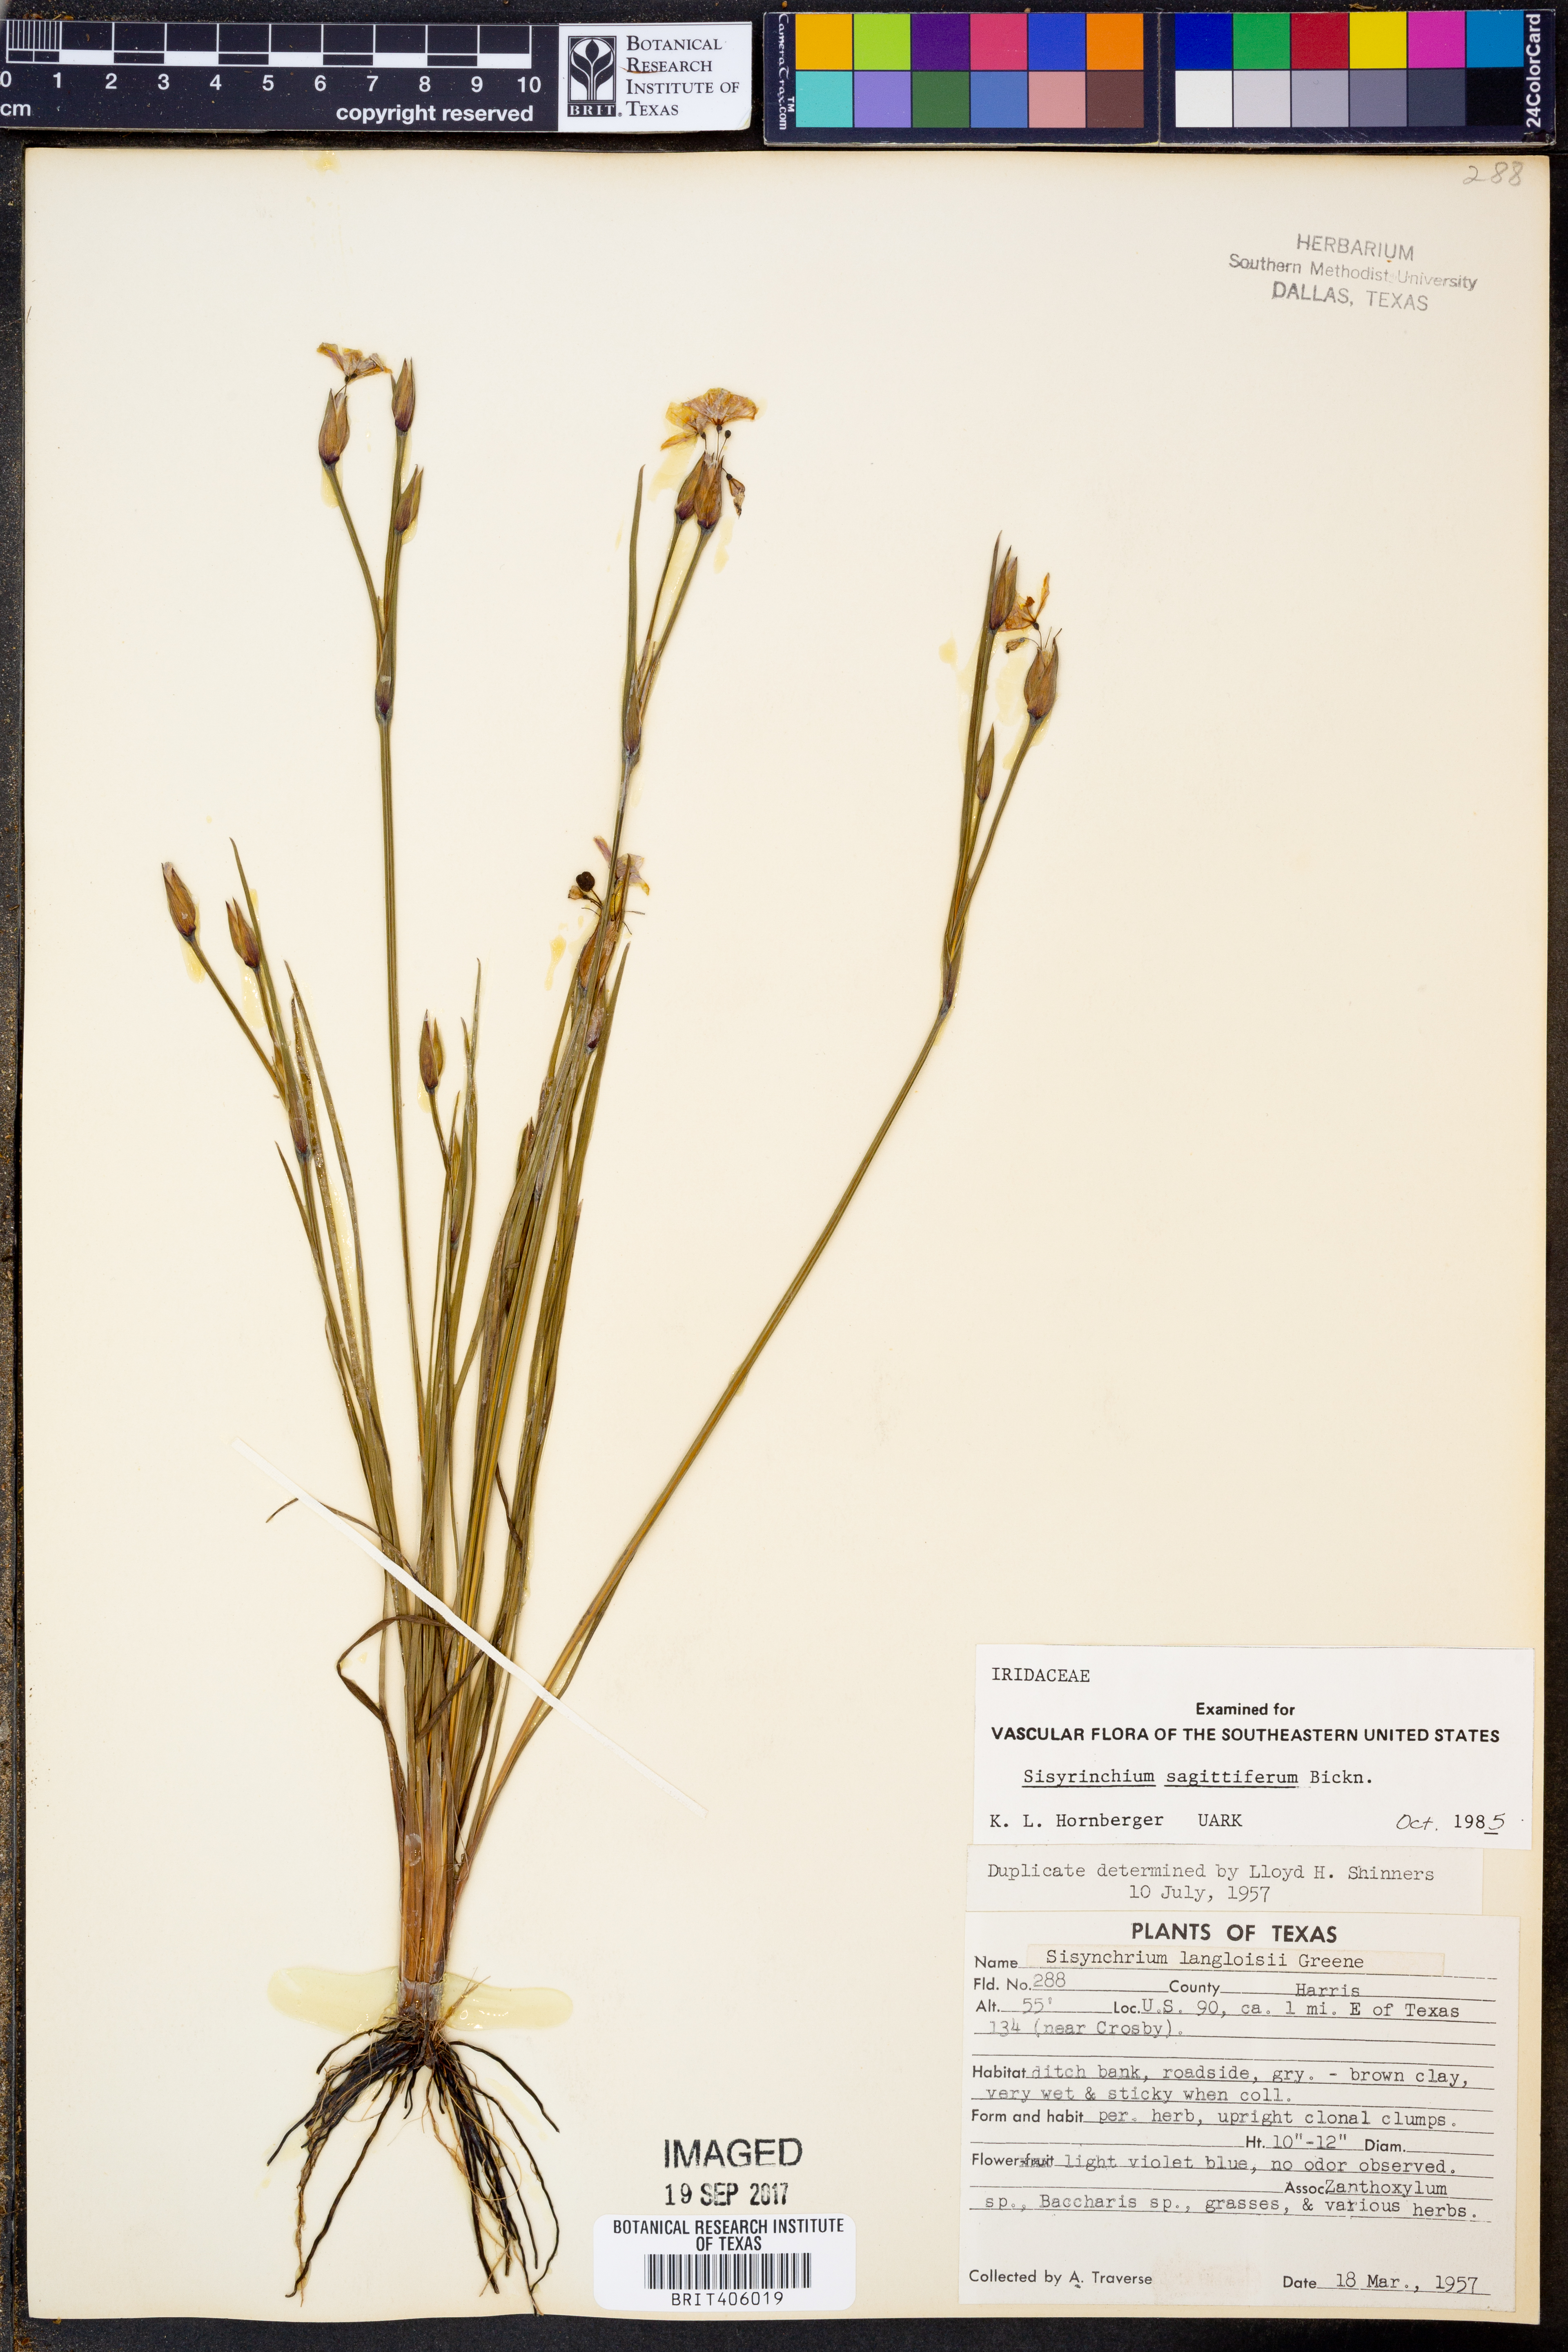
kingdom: Plantae
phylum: Tracheophyta
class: Liliopsida
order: Asparagales
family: Iridaceae
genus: Sisyrinchium
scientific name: Sisyrinchium sagittiferum
